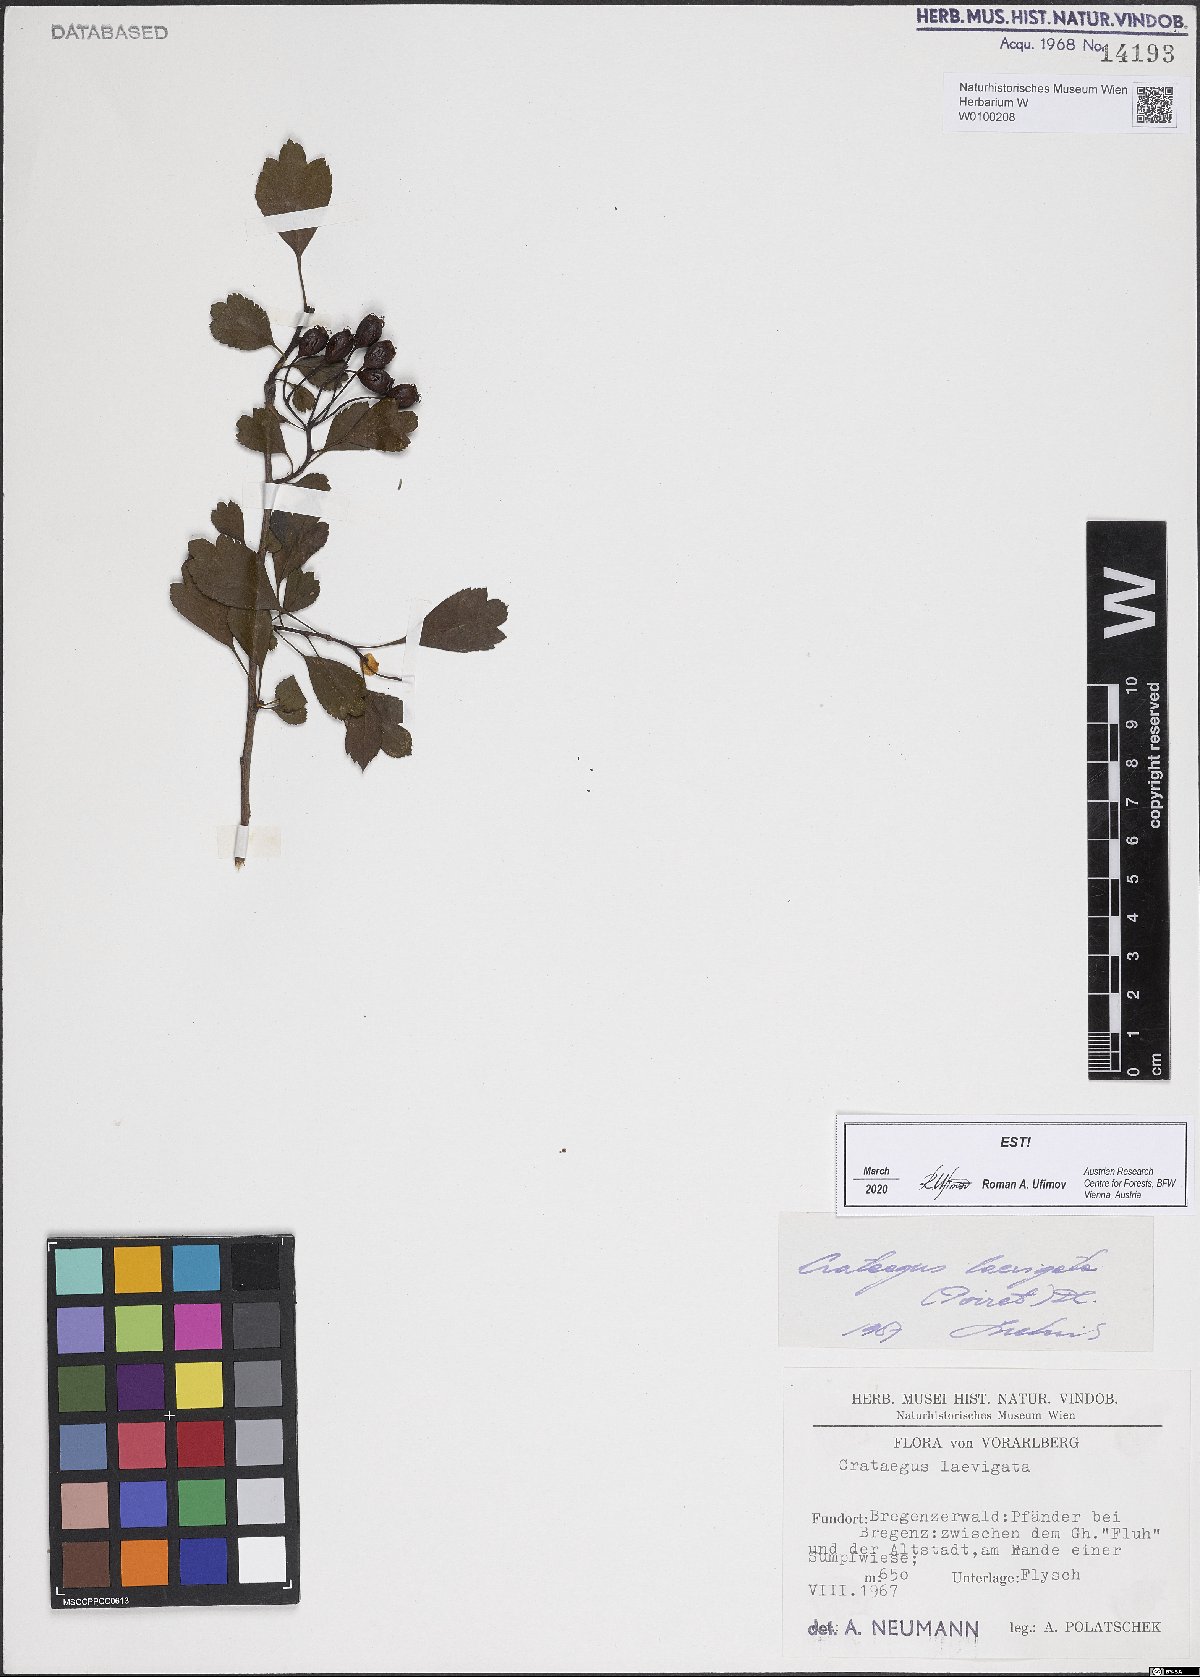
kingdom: Plantae
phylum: Tracheophyta
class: Magnoliopsida
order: Rosales
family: Rosaceae
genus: Crataegus
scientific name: Crataegus laevigata
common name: Midland hawthorn
